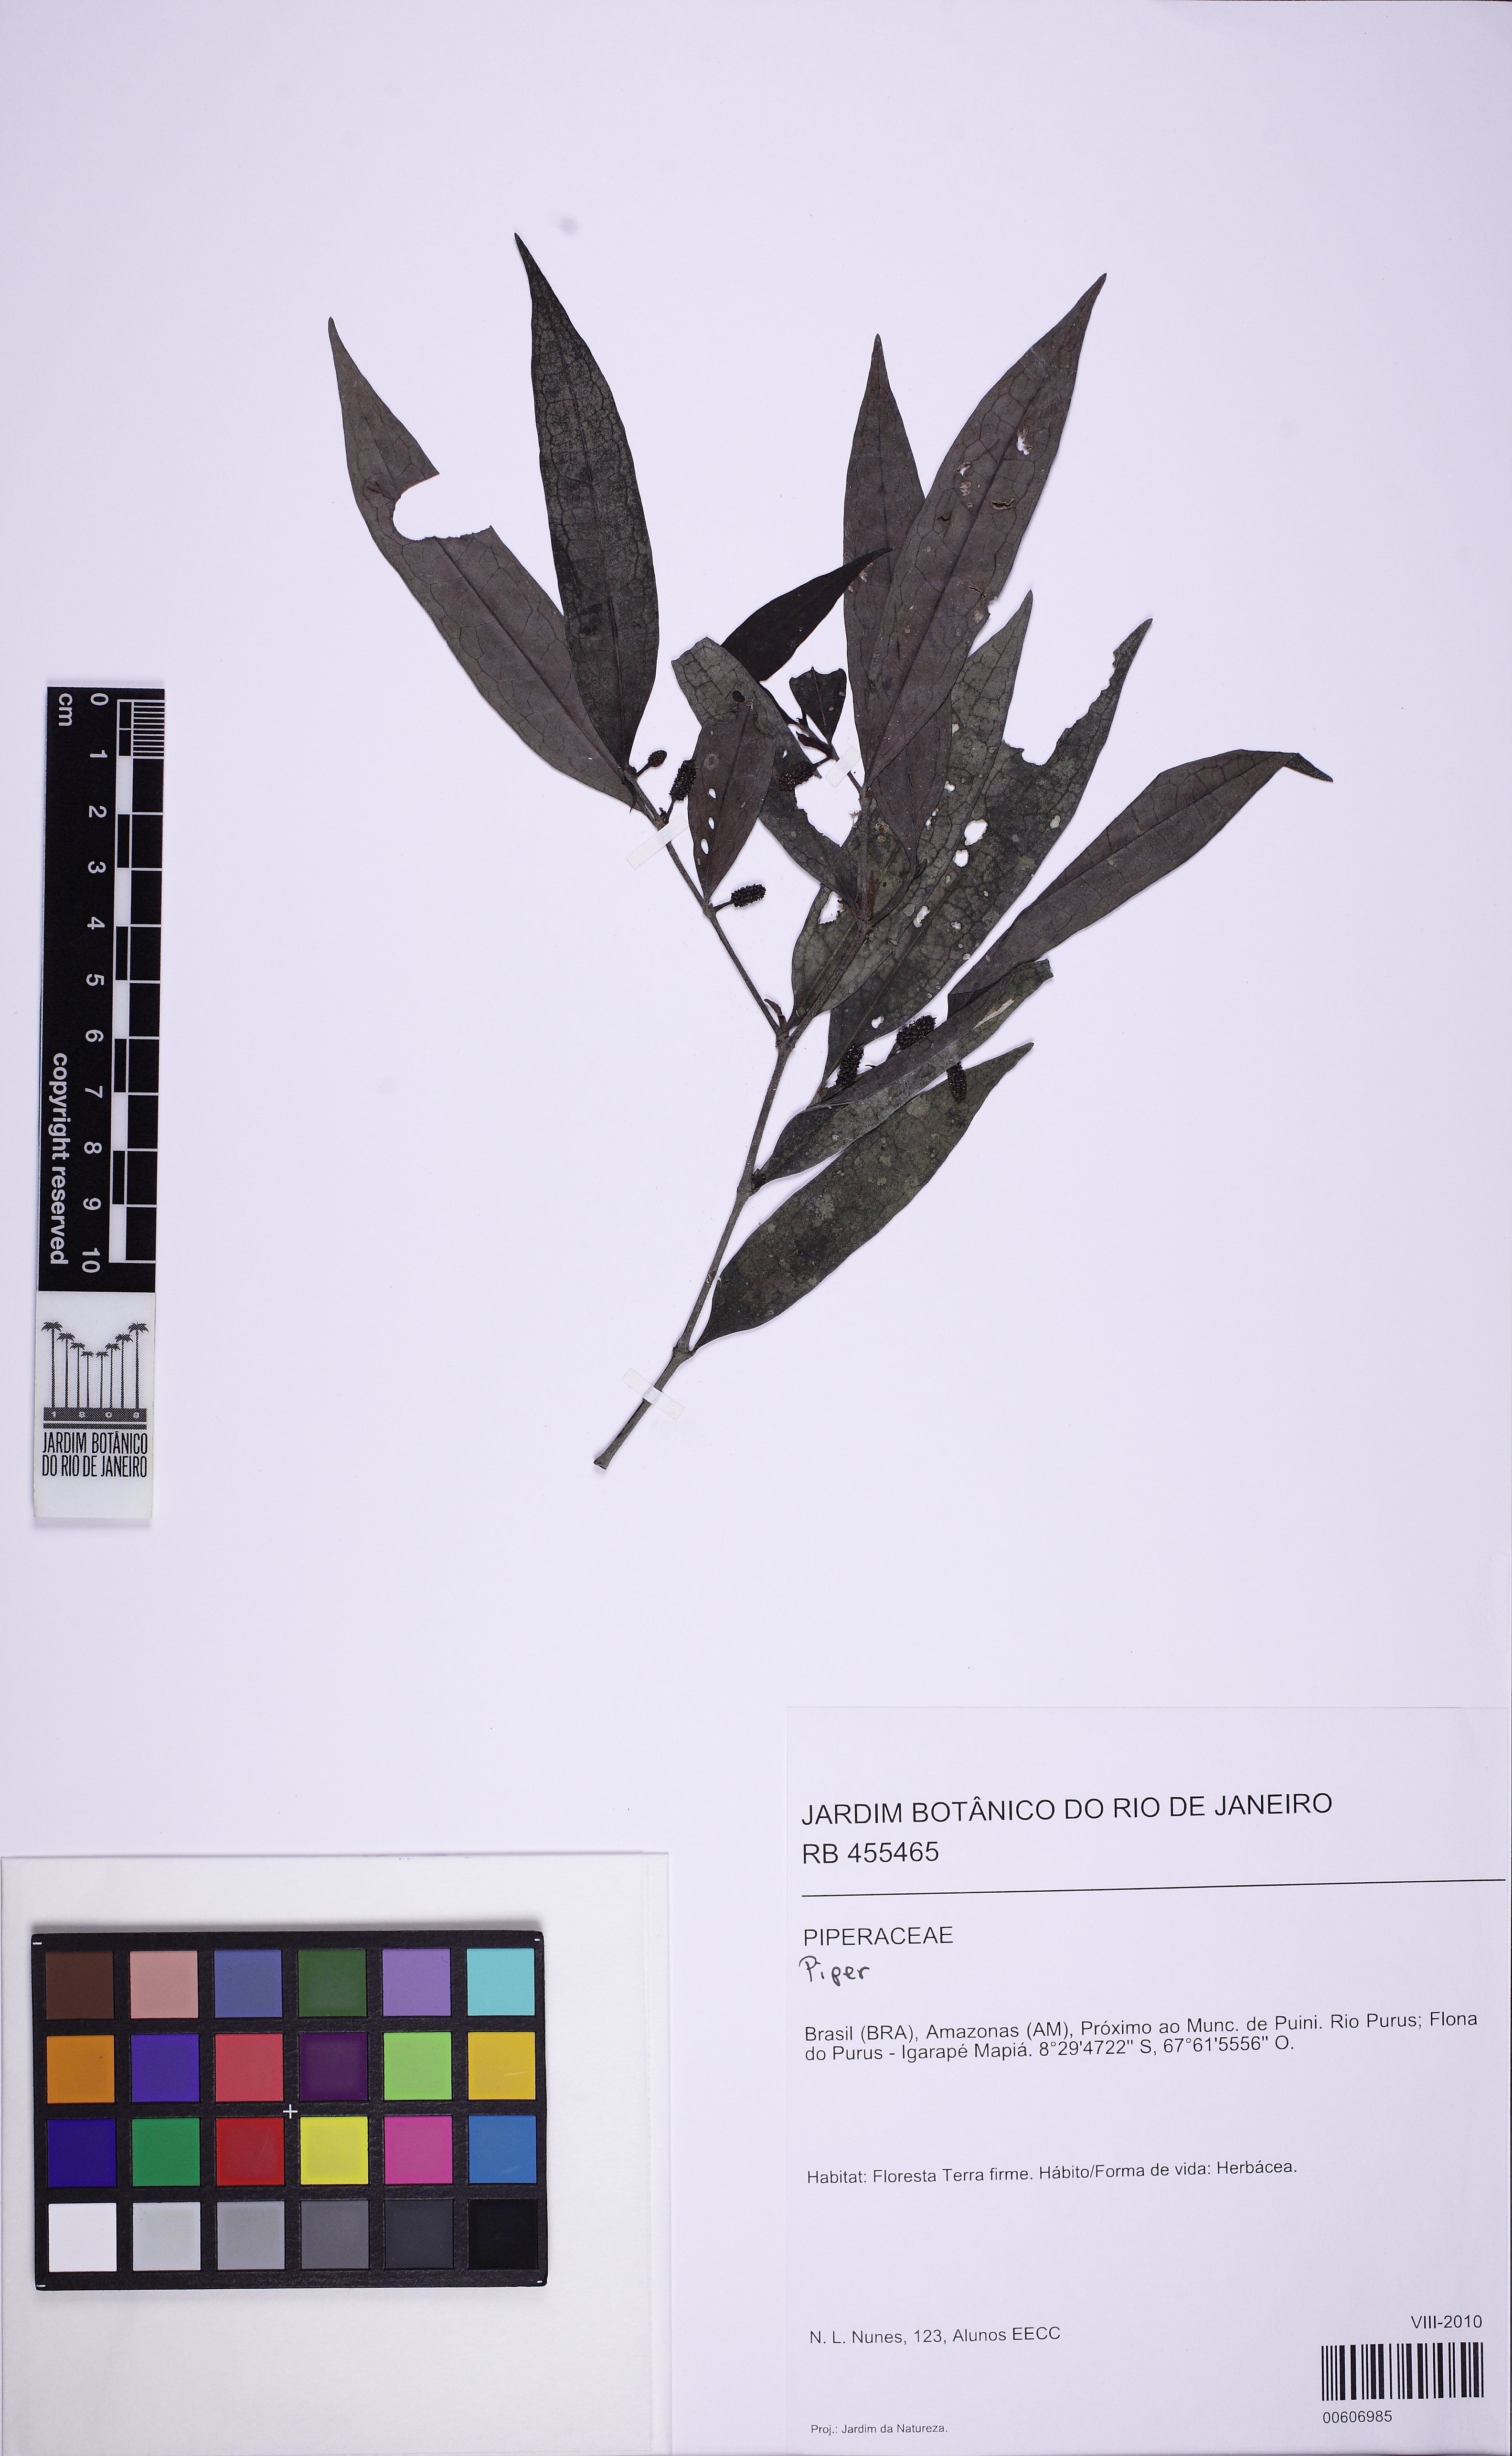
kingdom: Plantae
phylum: Tracheophyta
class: Magnoliopsida
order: Piperales
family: Piperaceae
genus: Piper
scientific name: Piper
